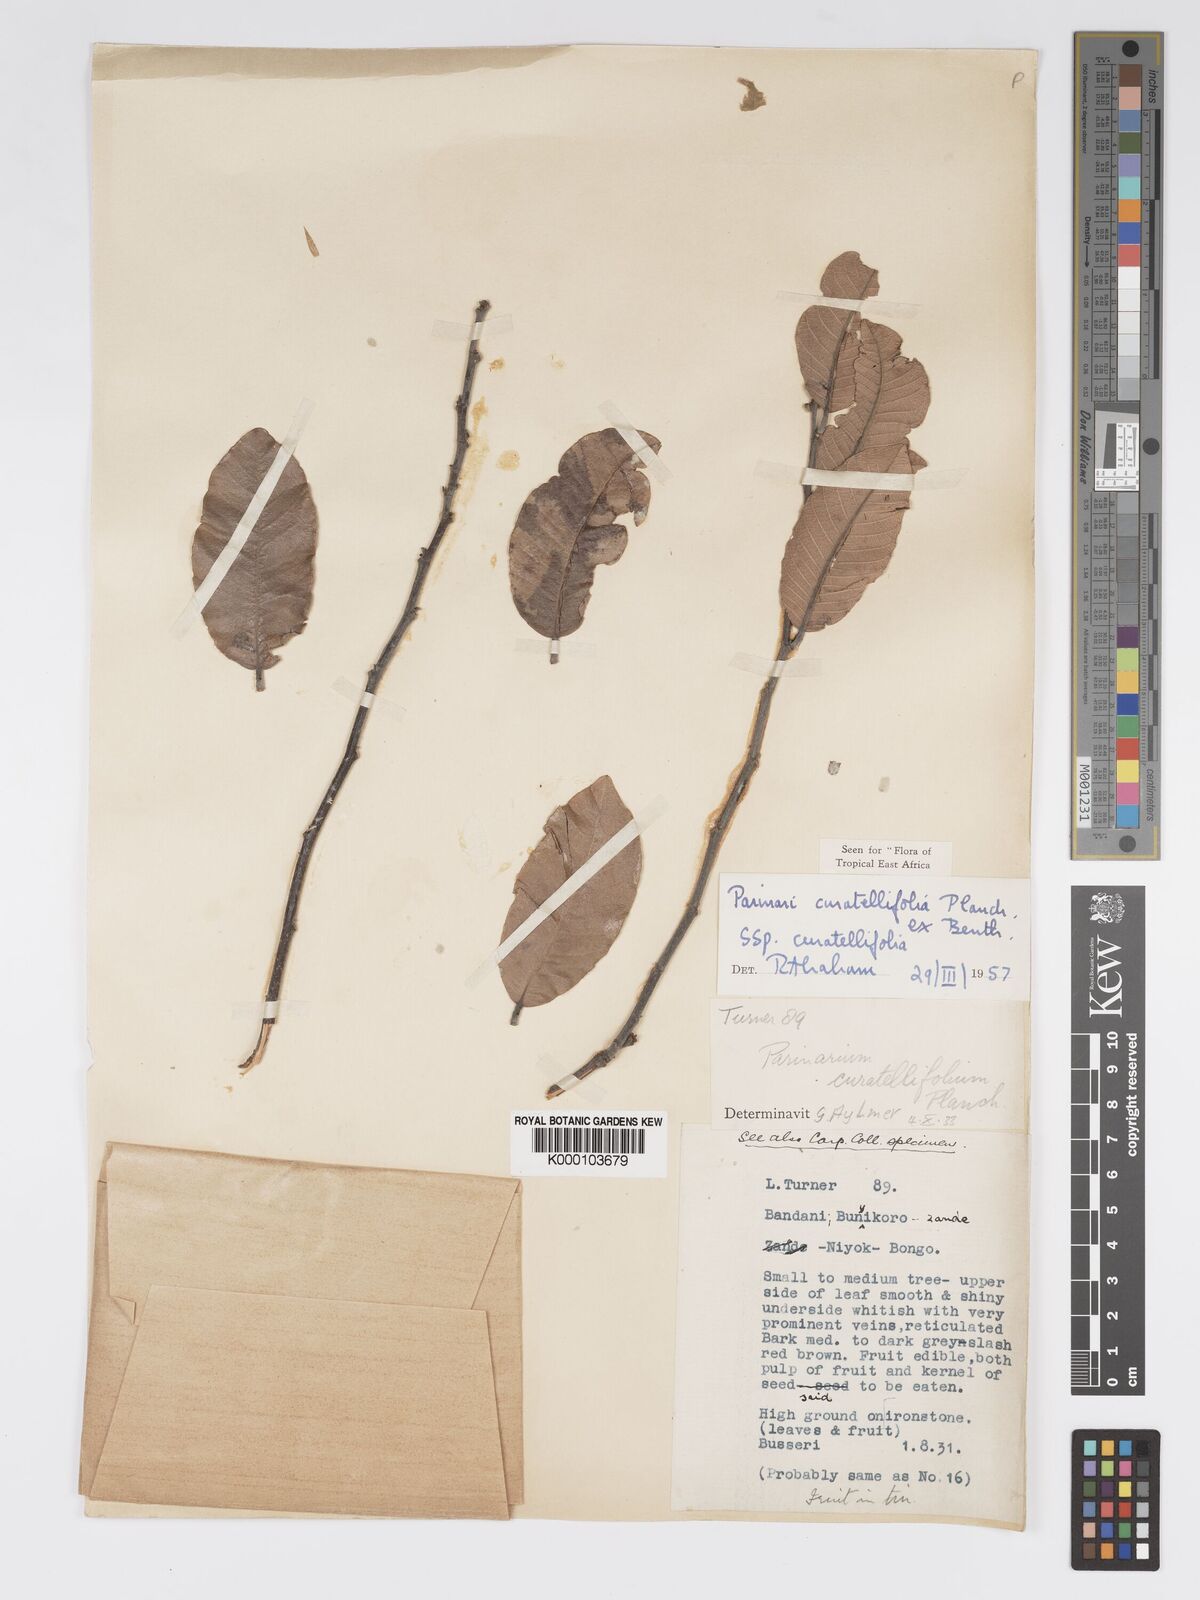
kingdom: Plantae
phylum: Tracheophyta
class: Magnoliopsida
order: Malpighiales
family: Chrysobalanaceae
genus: Parinari
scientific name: Parinari curatellifolia
